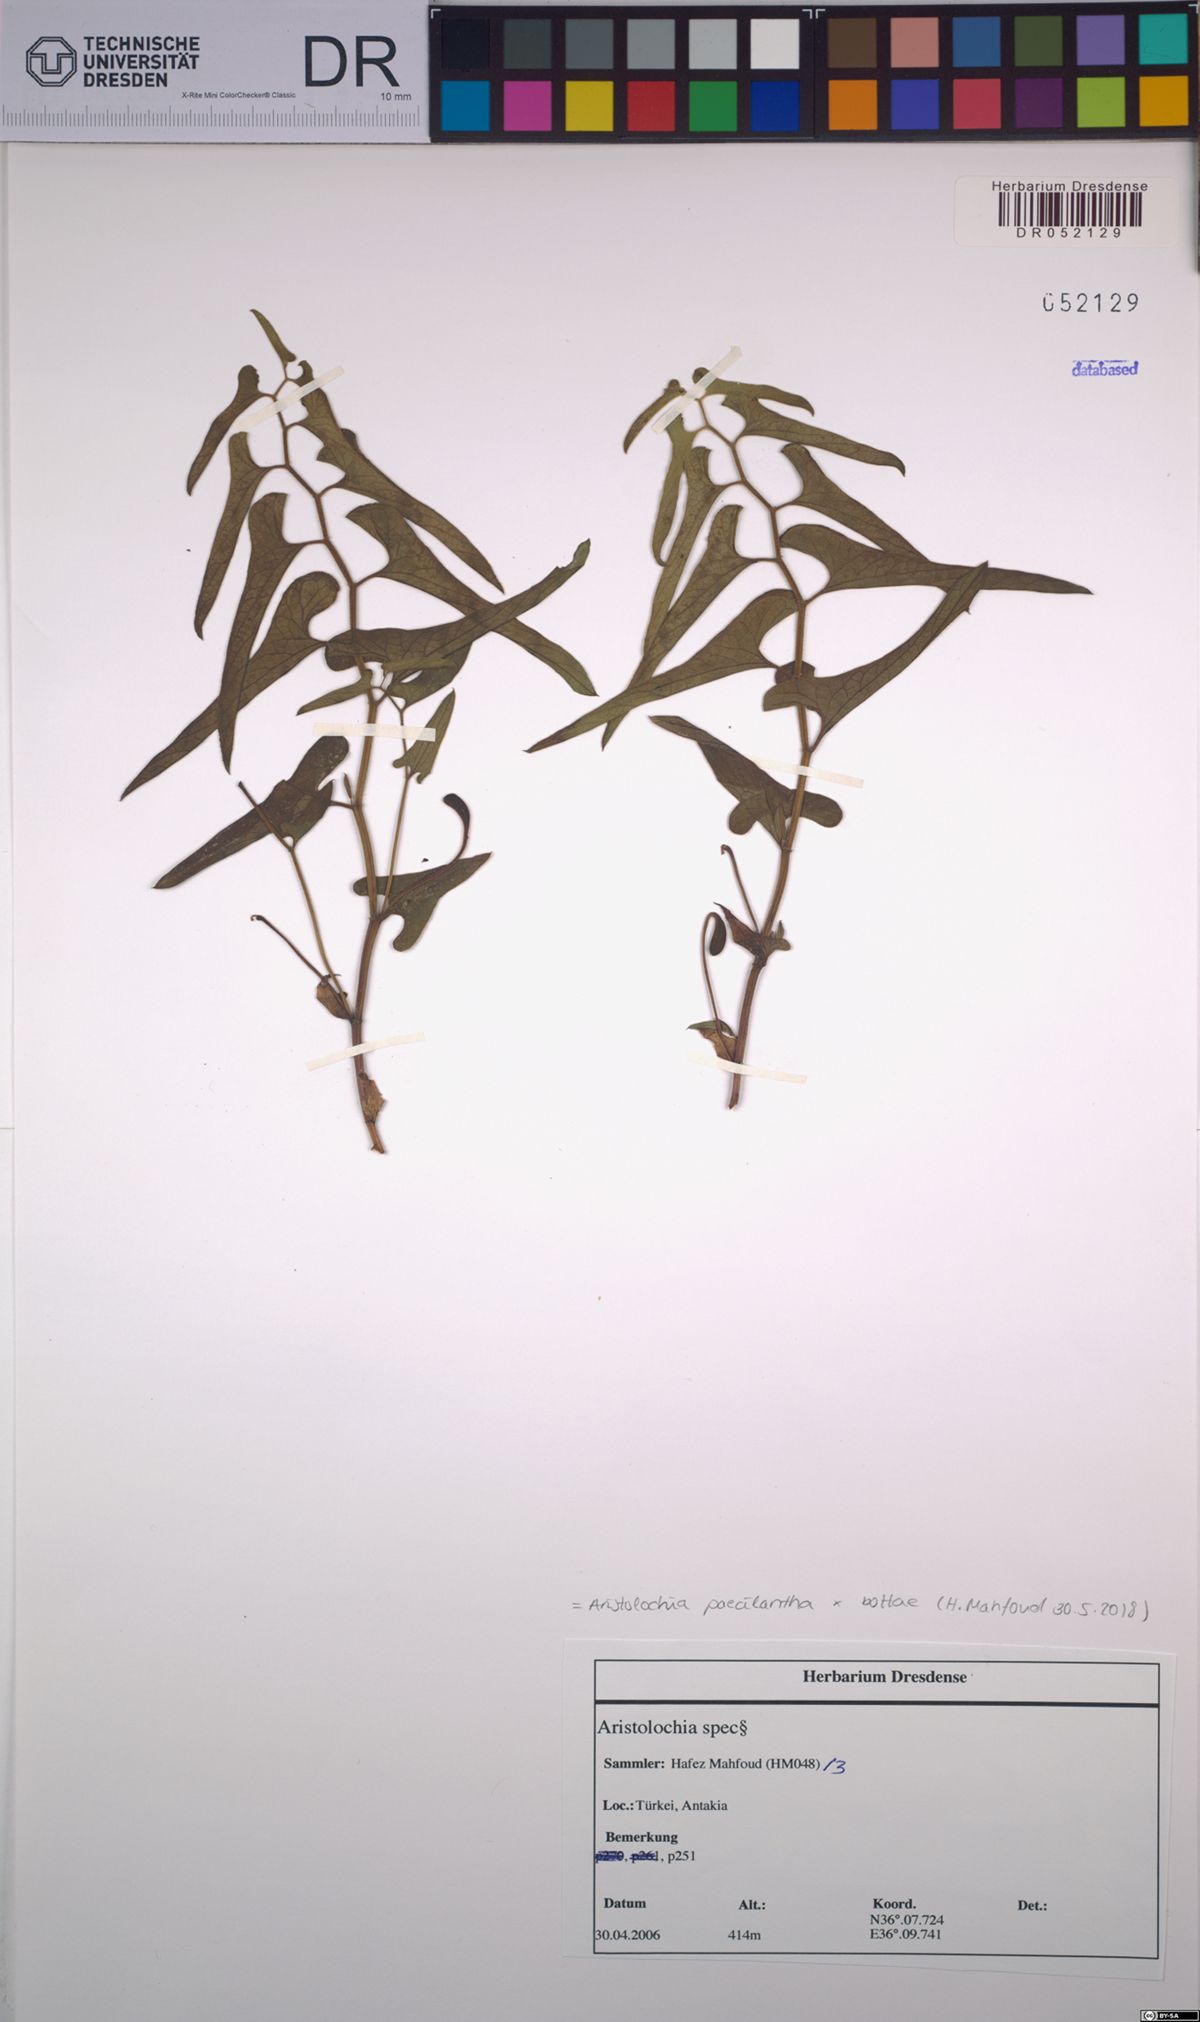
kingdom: Plantae
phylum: Tracheophyta
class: Magnoliopsida
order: Piperales
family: Aristolochiaceae
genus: Aristolochia
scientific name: Aristolochia paecilantha
